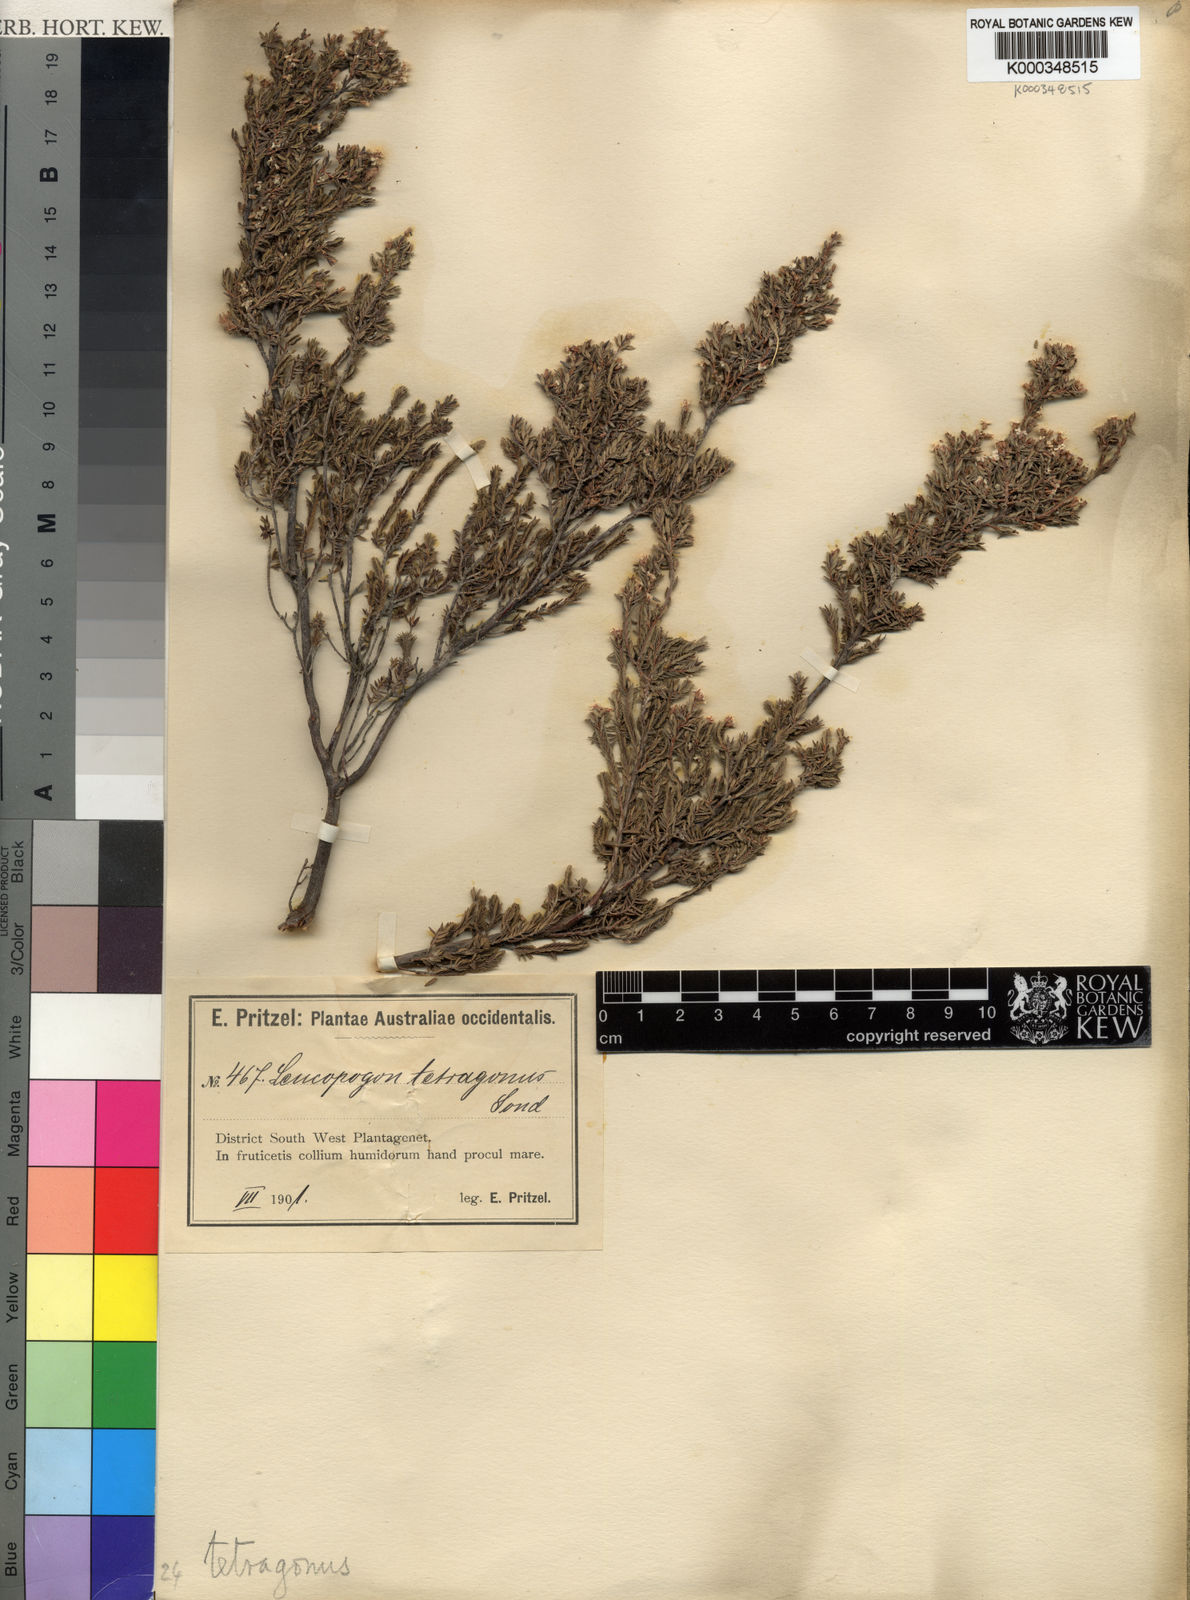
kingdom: Plantae
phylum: Tracheophyta
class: Magnoliopsida
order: Ericales
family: Ericaceae
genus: Leucopogon
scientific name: Leucopogon tetragonus
